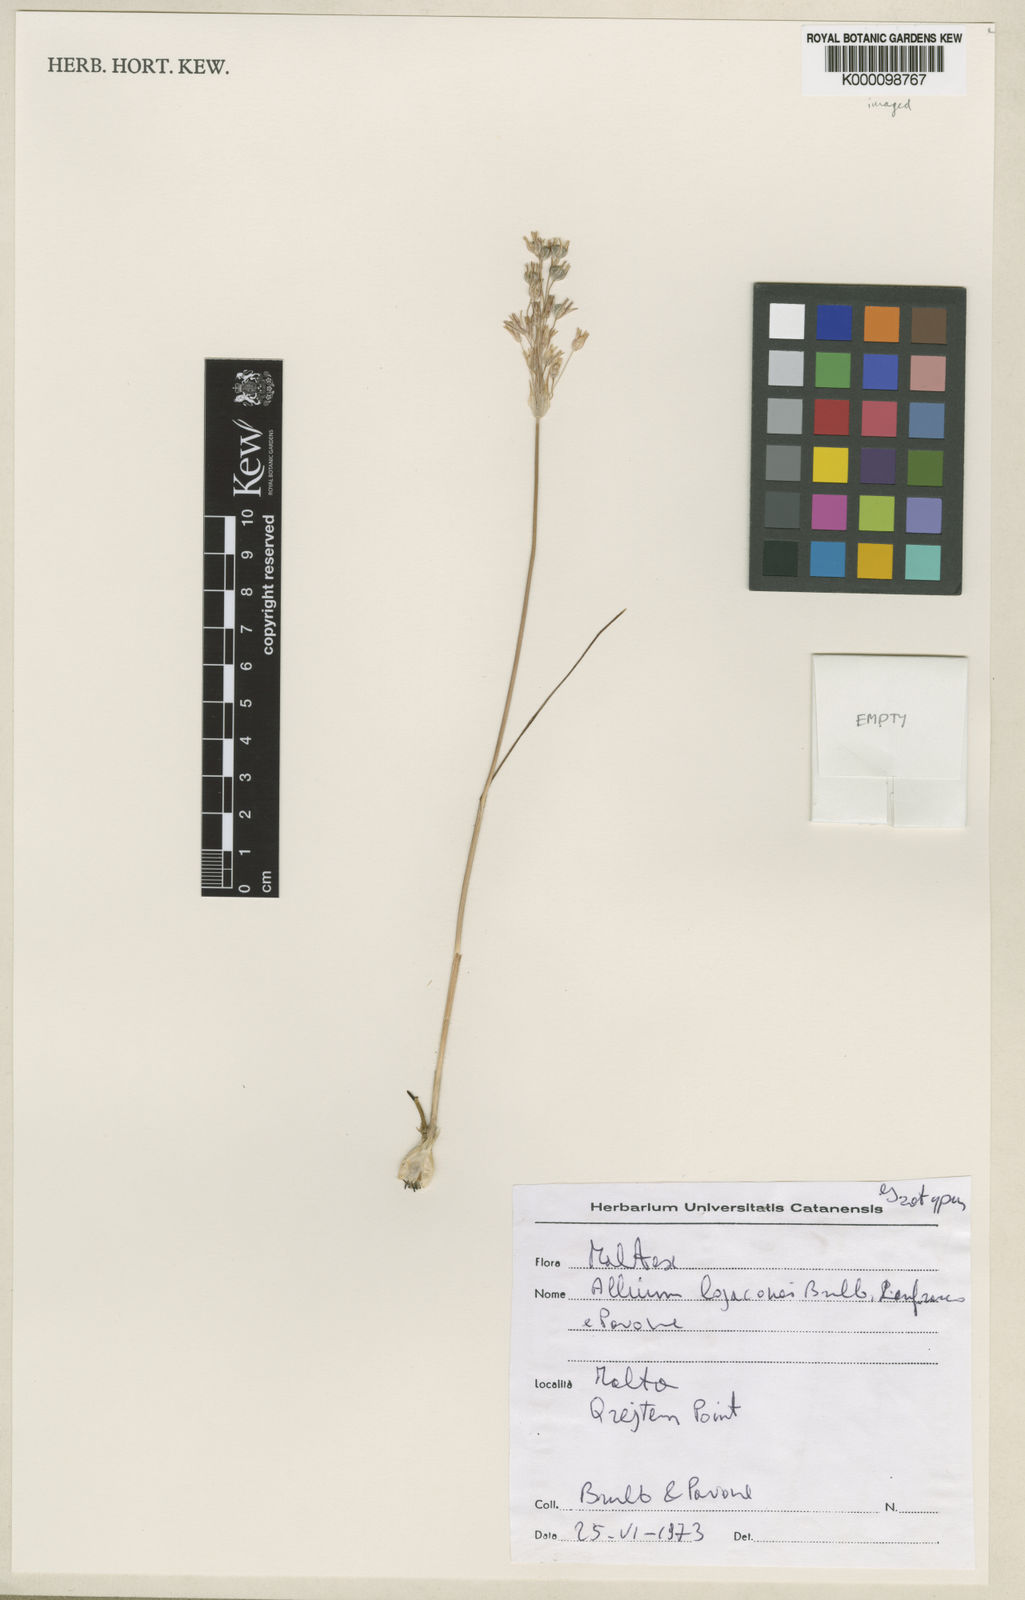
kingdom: Plantae
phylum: Tracheophyta
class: Liliopsida
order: Asparagales
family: Amaryllidaceae
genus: Allium
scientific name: Allium
